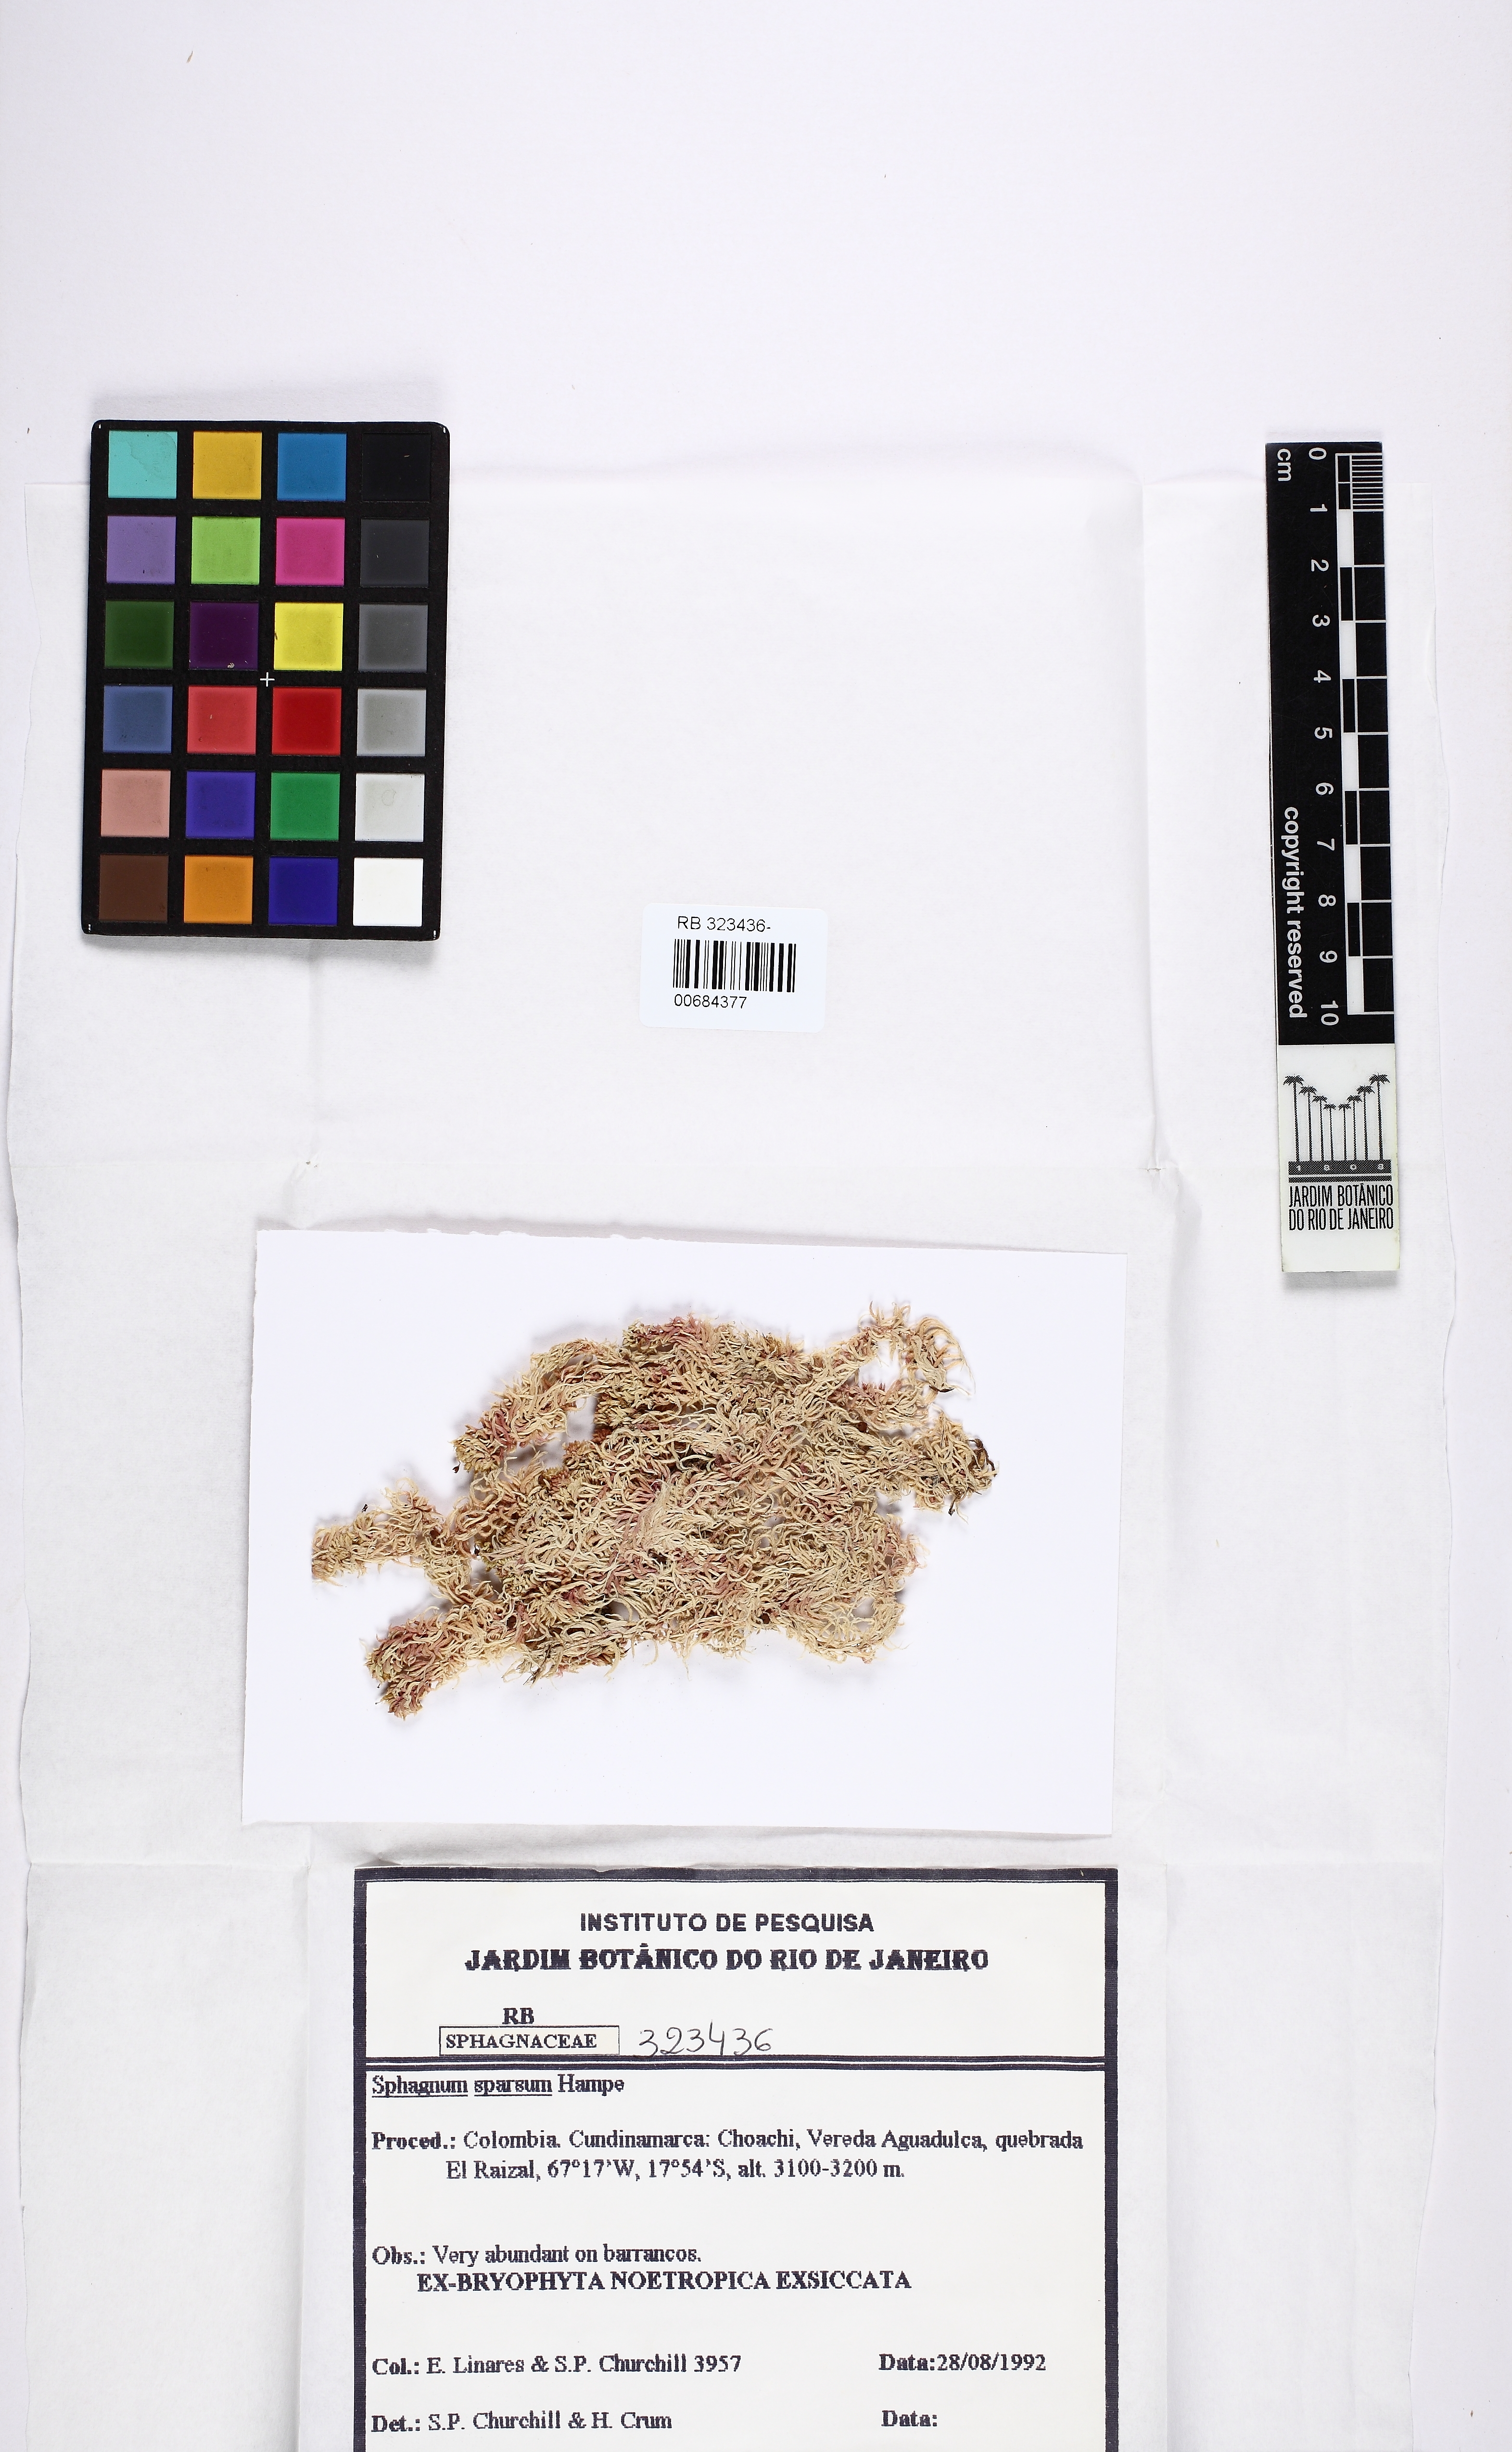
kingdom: Plantae
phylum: Bryophyta
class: Sphagnopsida
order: Sphagnales
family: Sphagnaceae
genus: Sphagnum
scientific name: Sphagnum sparsum
